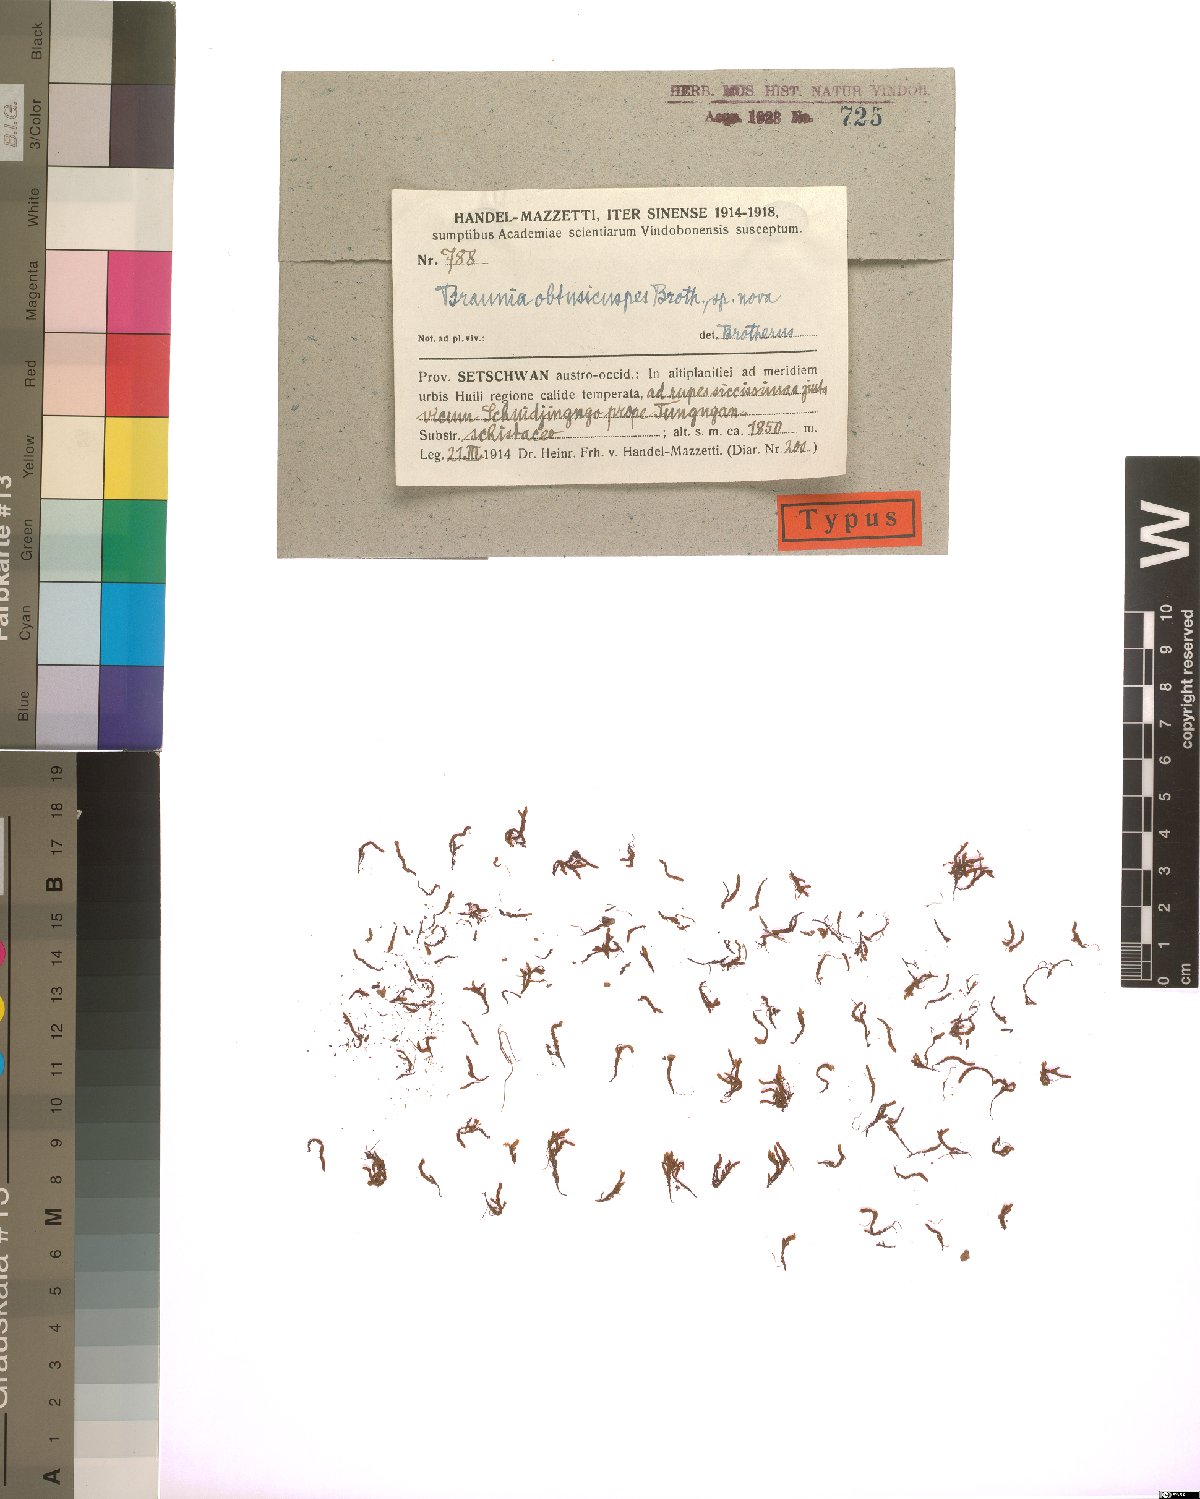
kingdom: Plantae
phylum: Bryophyta
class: Bryopsida
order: Hedwigiales
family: Hedwigiaceae
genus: Braunia
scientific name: Braunia alopecura
